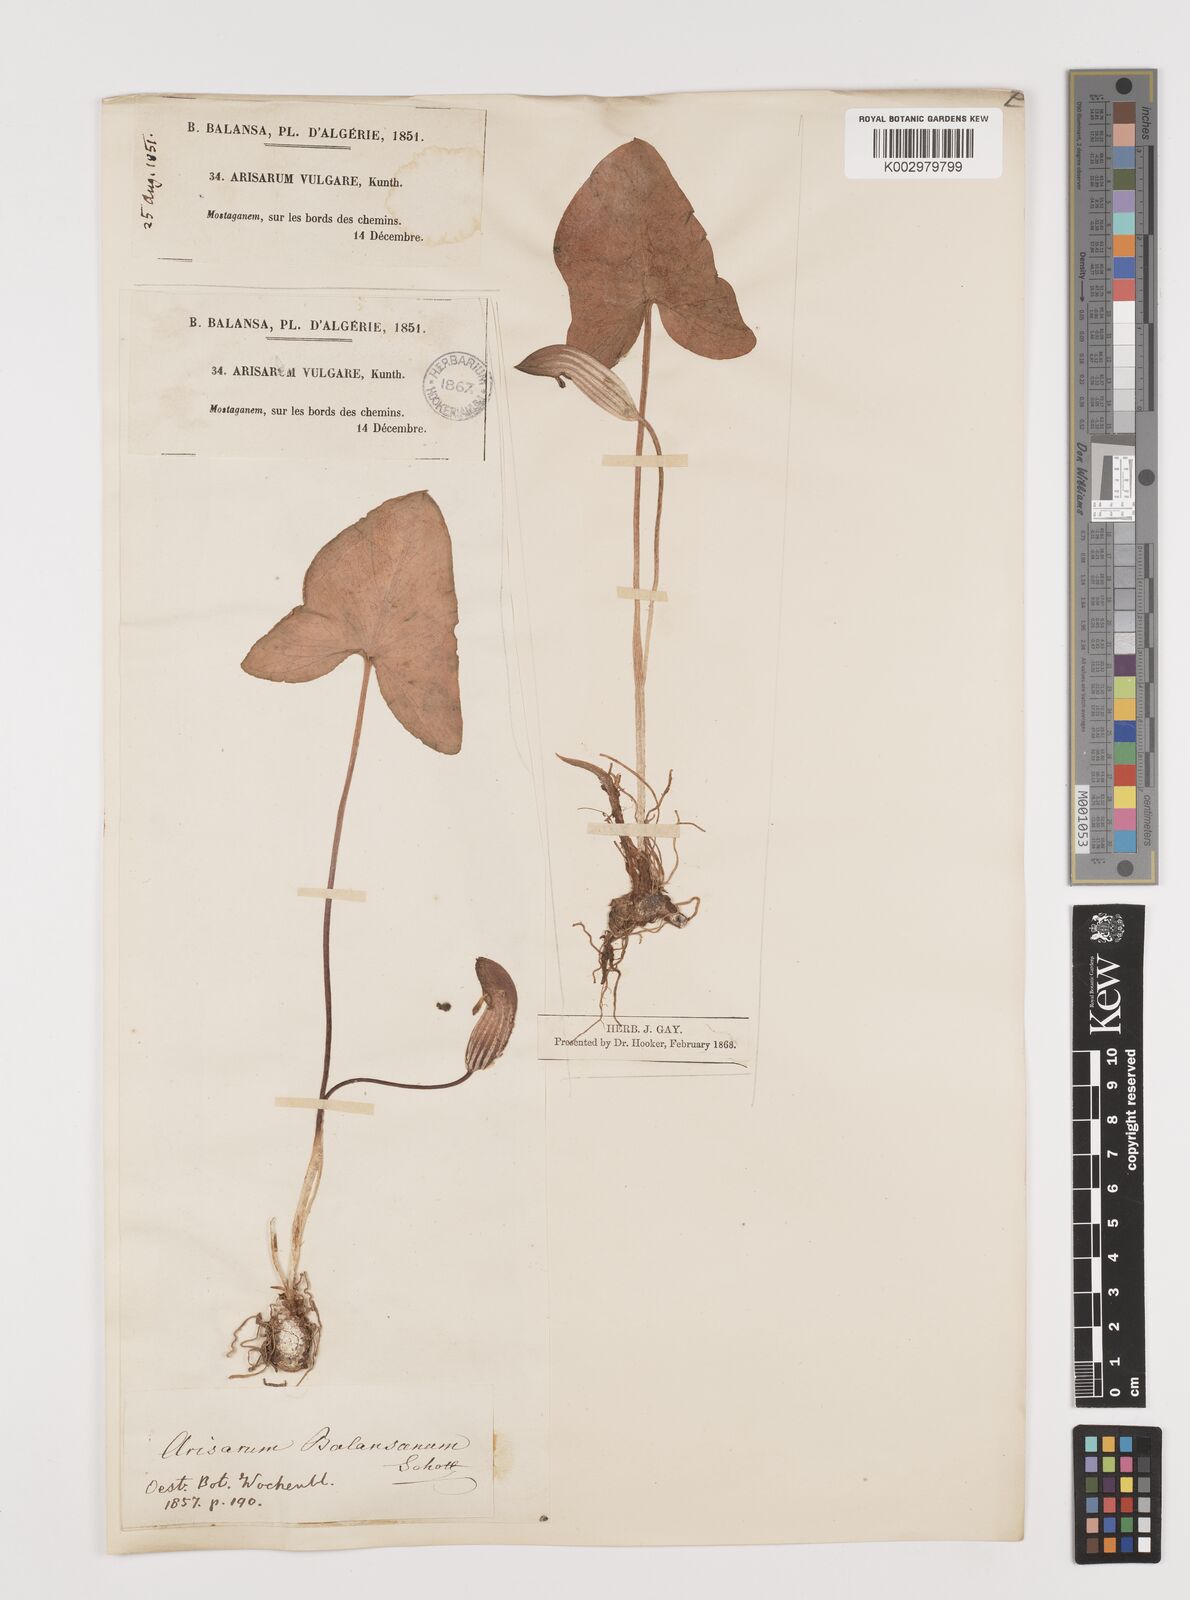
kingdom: Plantae
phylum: Tracheophyta
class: Liliopsida
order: Alismatales
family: Araceae
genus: Arisarum
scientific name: Arisarum simorrhinum
